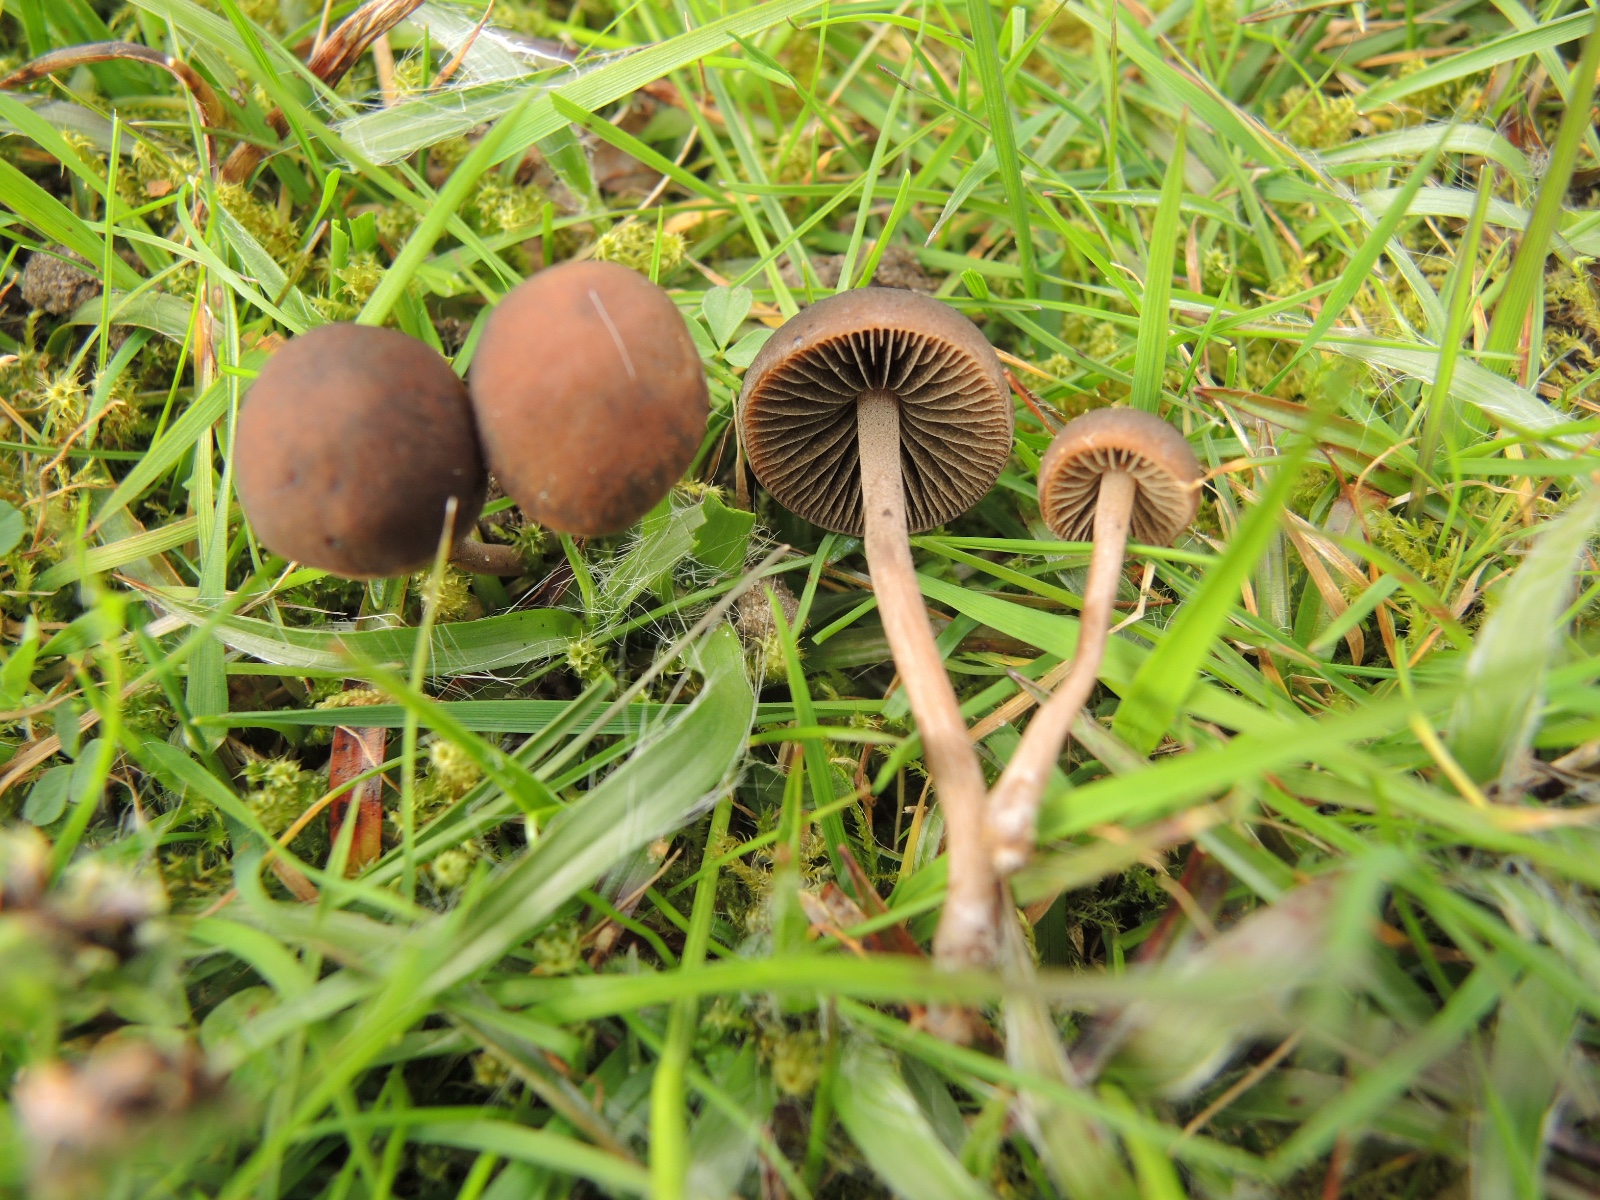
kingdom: Fungi
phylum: Basidiomycota
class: Agaricomycetes
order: Agaricales
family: Bolbitiaceae
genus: Panaeolus
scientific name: Panaeolus fimicola
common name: tidlig glanshat
